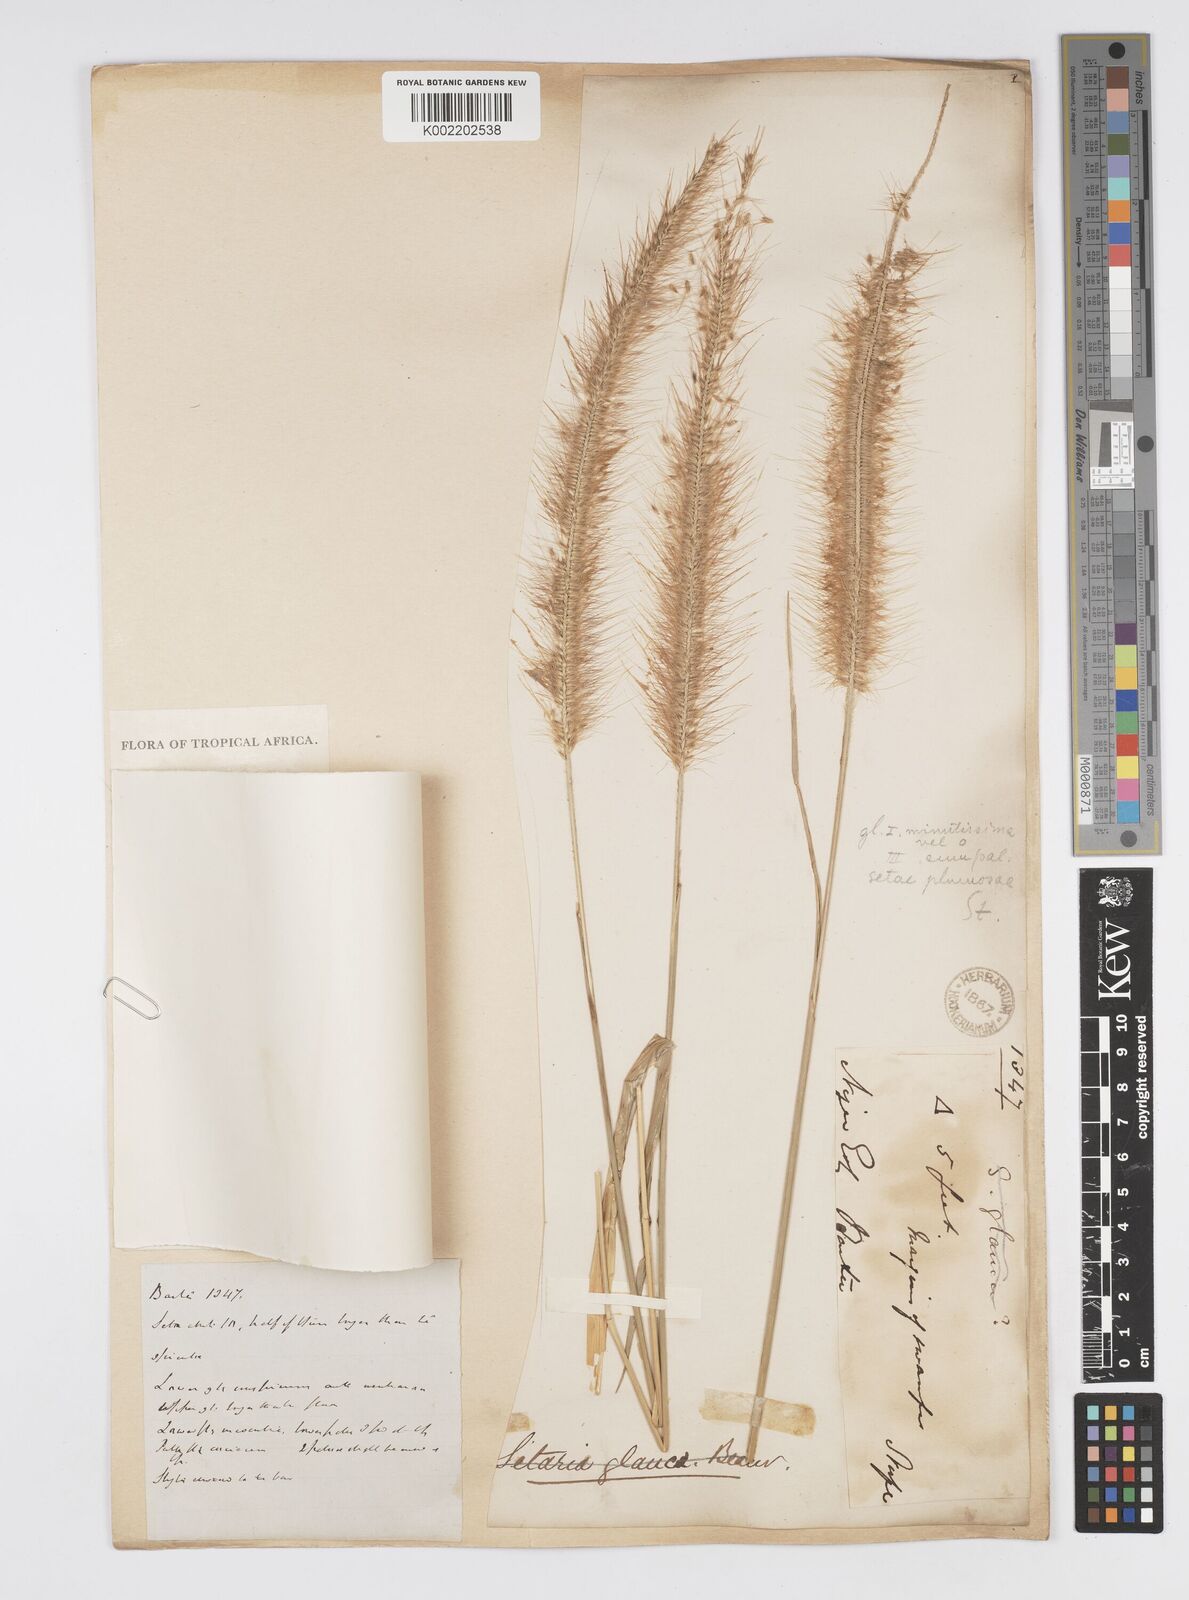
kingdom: Plantae
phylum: Tracheophyta
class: Liliopsida
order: Poales
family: Poaceae
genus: Setaria
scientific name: Setaria parviflora
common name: Knotroot bristle-grass
